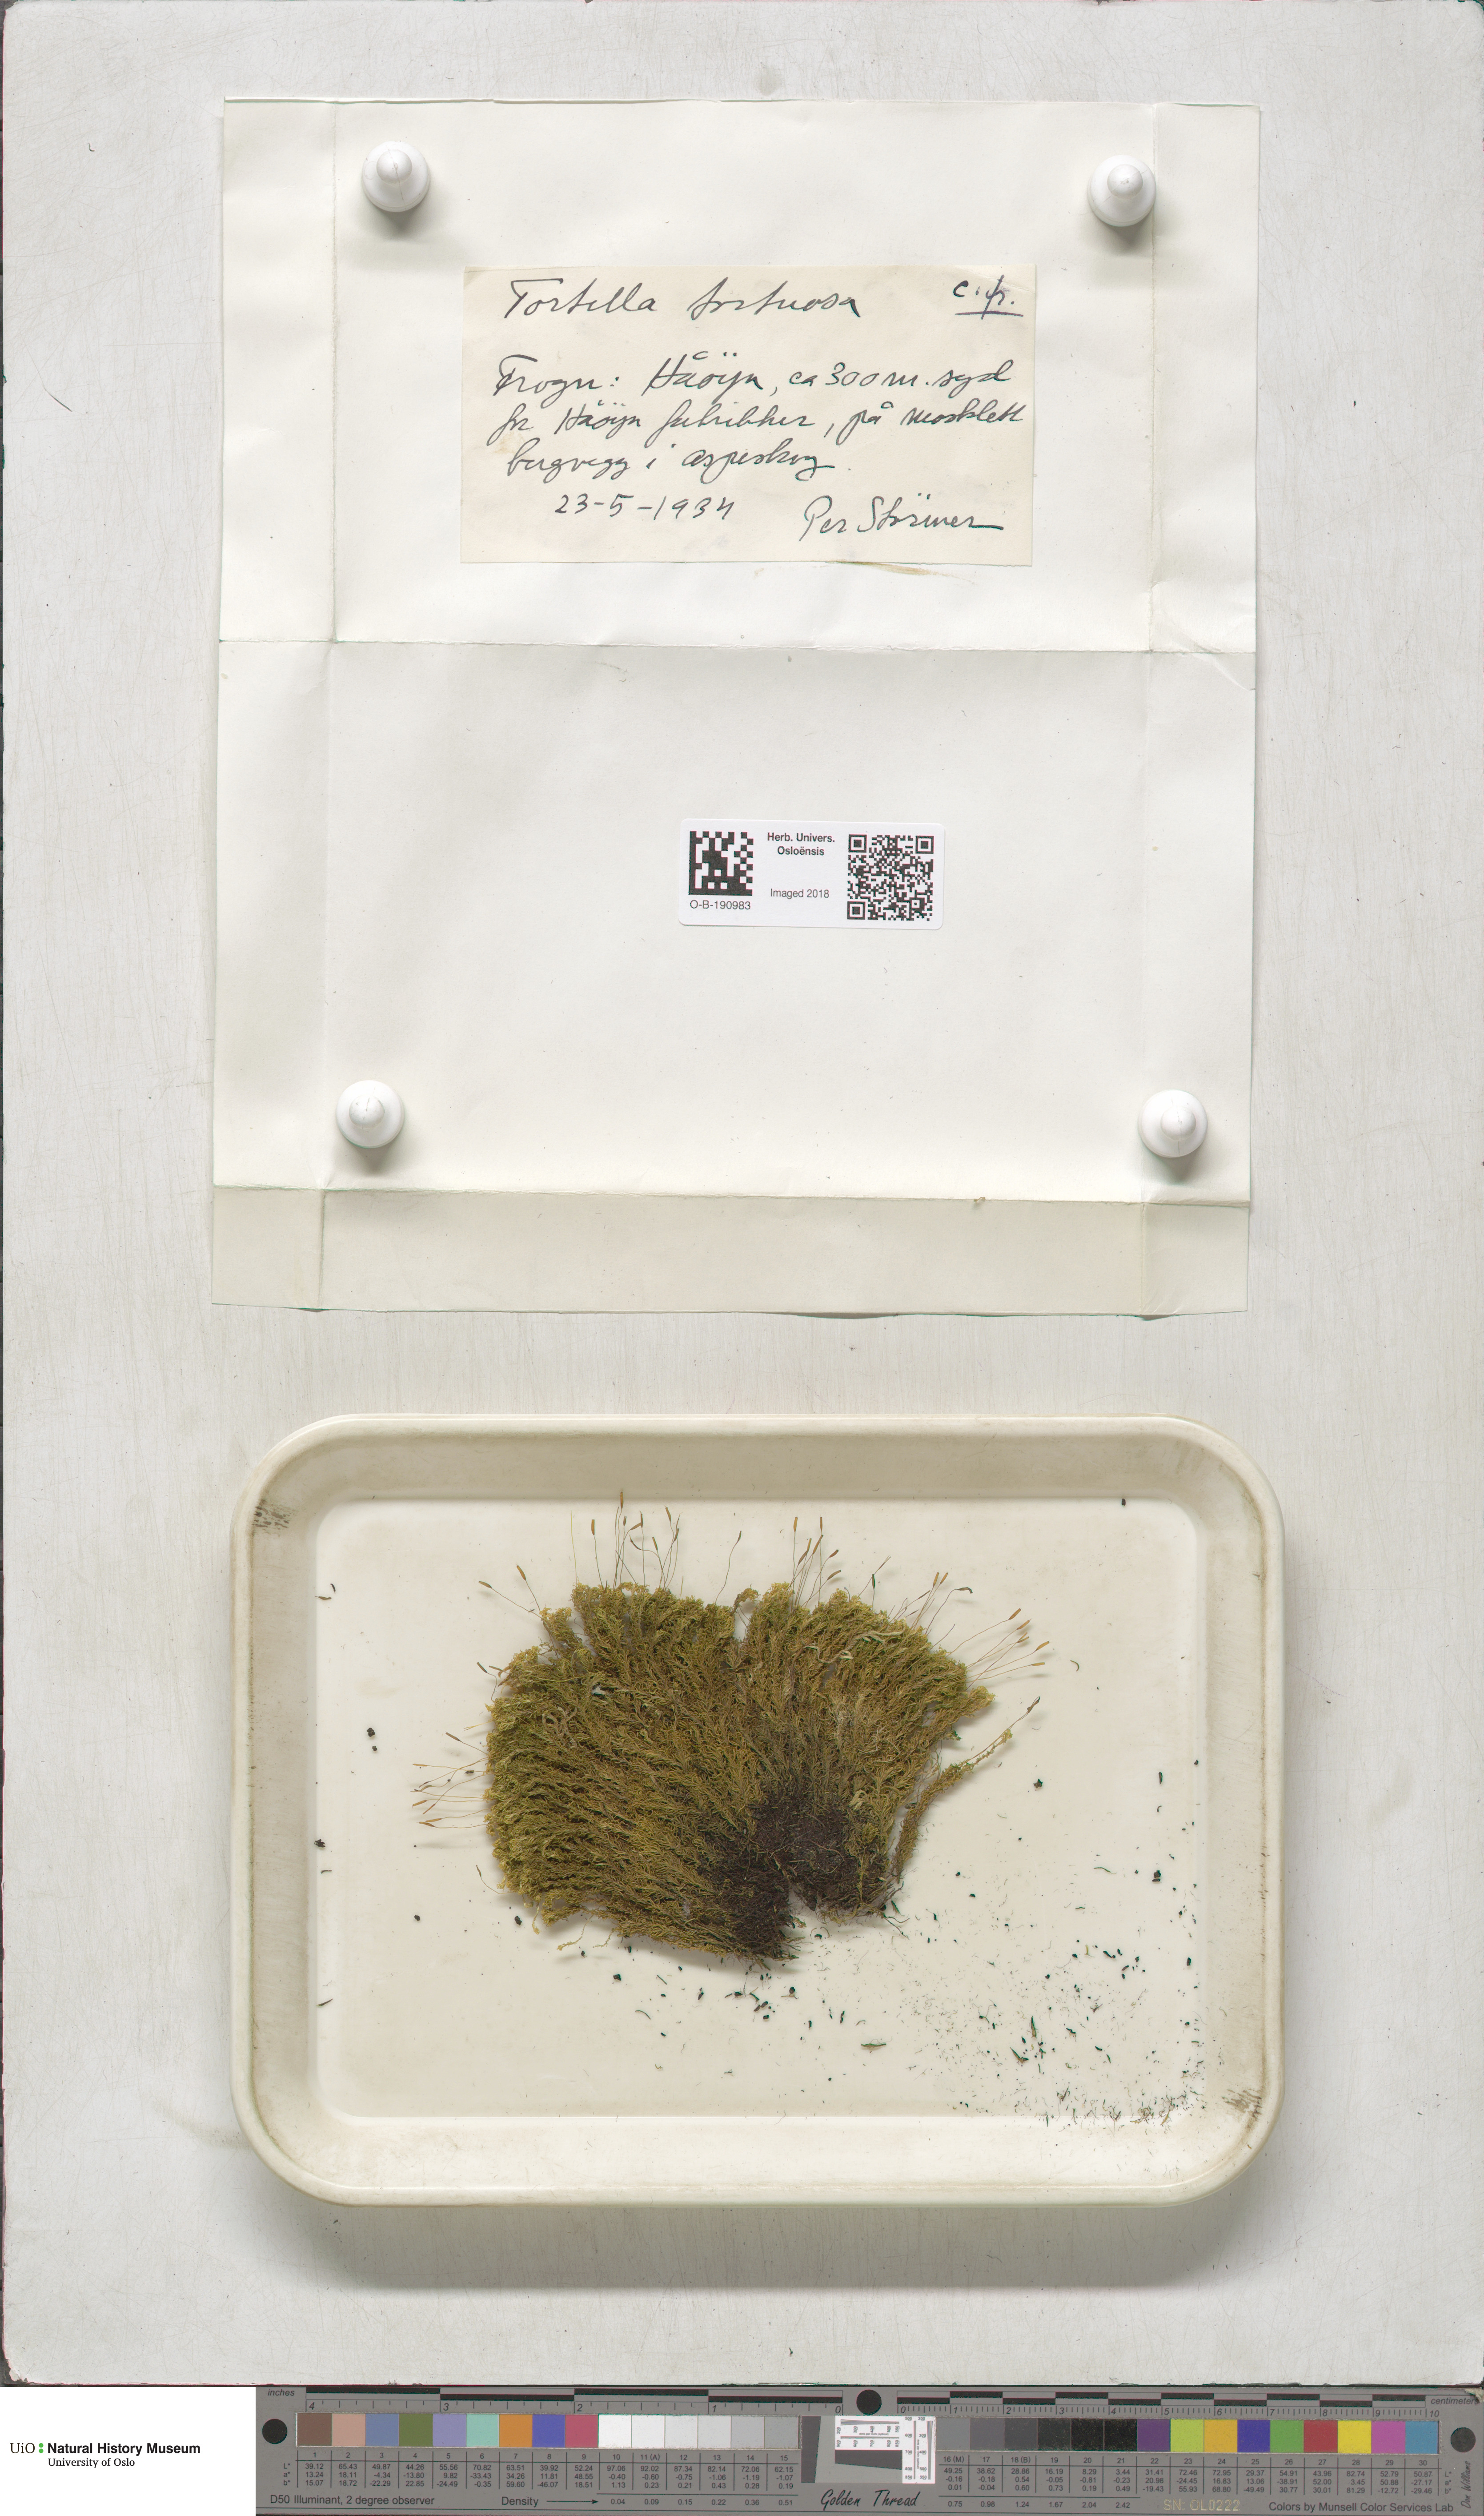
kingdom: Plantae
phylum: Bryophyta
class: Bryopsida
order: Pottiales
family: Pottiaceae
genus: Tortella
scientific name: Tortella tortuosa
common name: Frizzled crisp moss
